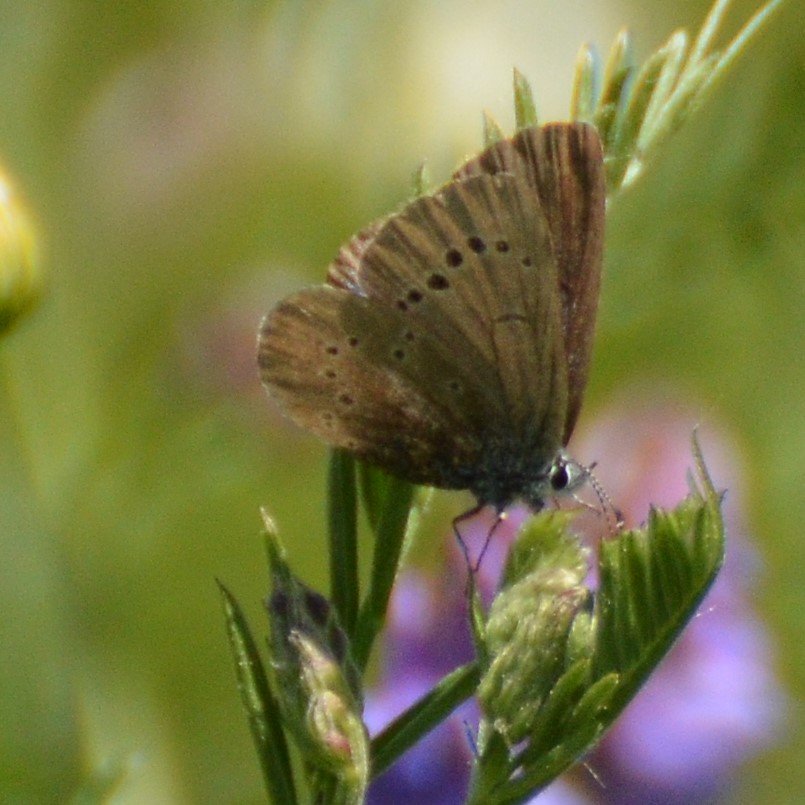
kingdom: Animalia
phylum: Arthropoda
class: Insecta
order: Lepidoptera
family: Lycaenidae
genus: Glaucopsyche
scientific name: Glaucopsyche lygdamus
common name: Silvery Blue
